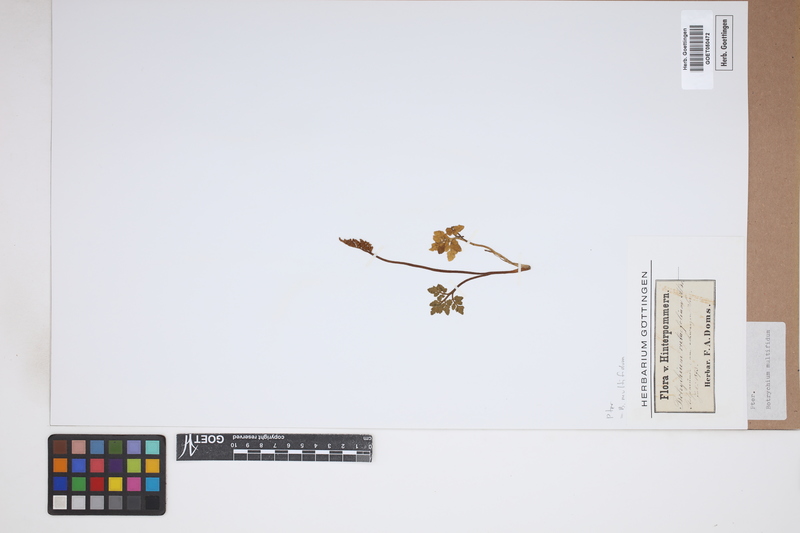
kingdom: Plantae
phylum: Tracheophyta
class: Polypodiopsida
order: Ophioglossales
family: Ophioglossaceae
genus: Sceptridium
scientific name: Sceptridium multifidum
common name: Leathery grape fern
